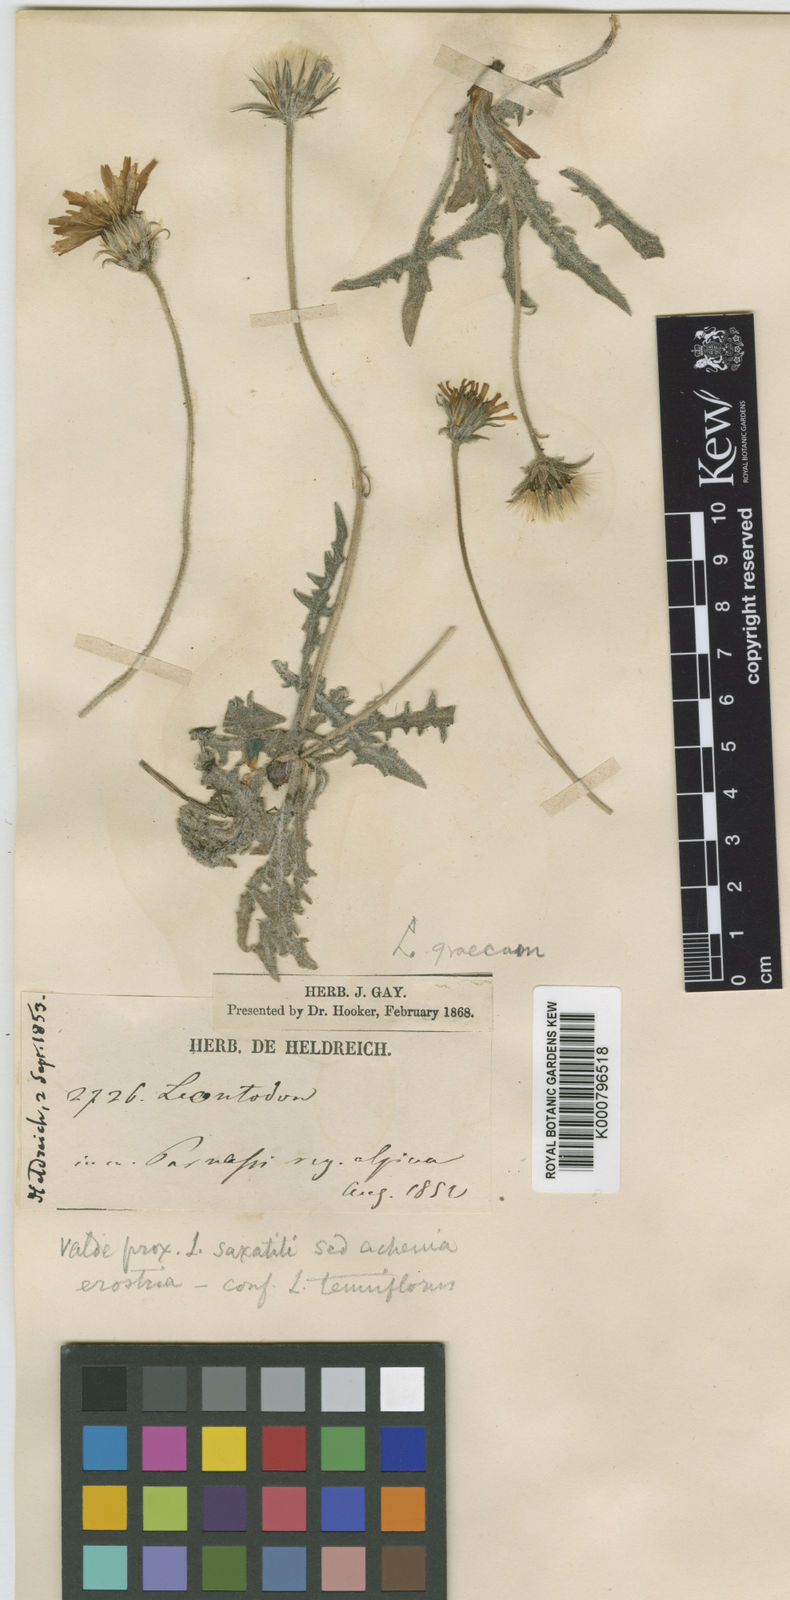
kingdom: Plantae
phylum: Tracheophyta
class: Magnoliopsida
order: Asterales
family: Asteraceae
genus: Leontodon
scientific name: Leontodon crispus
